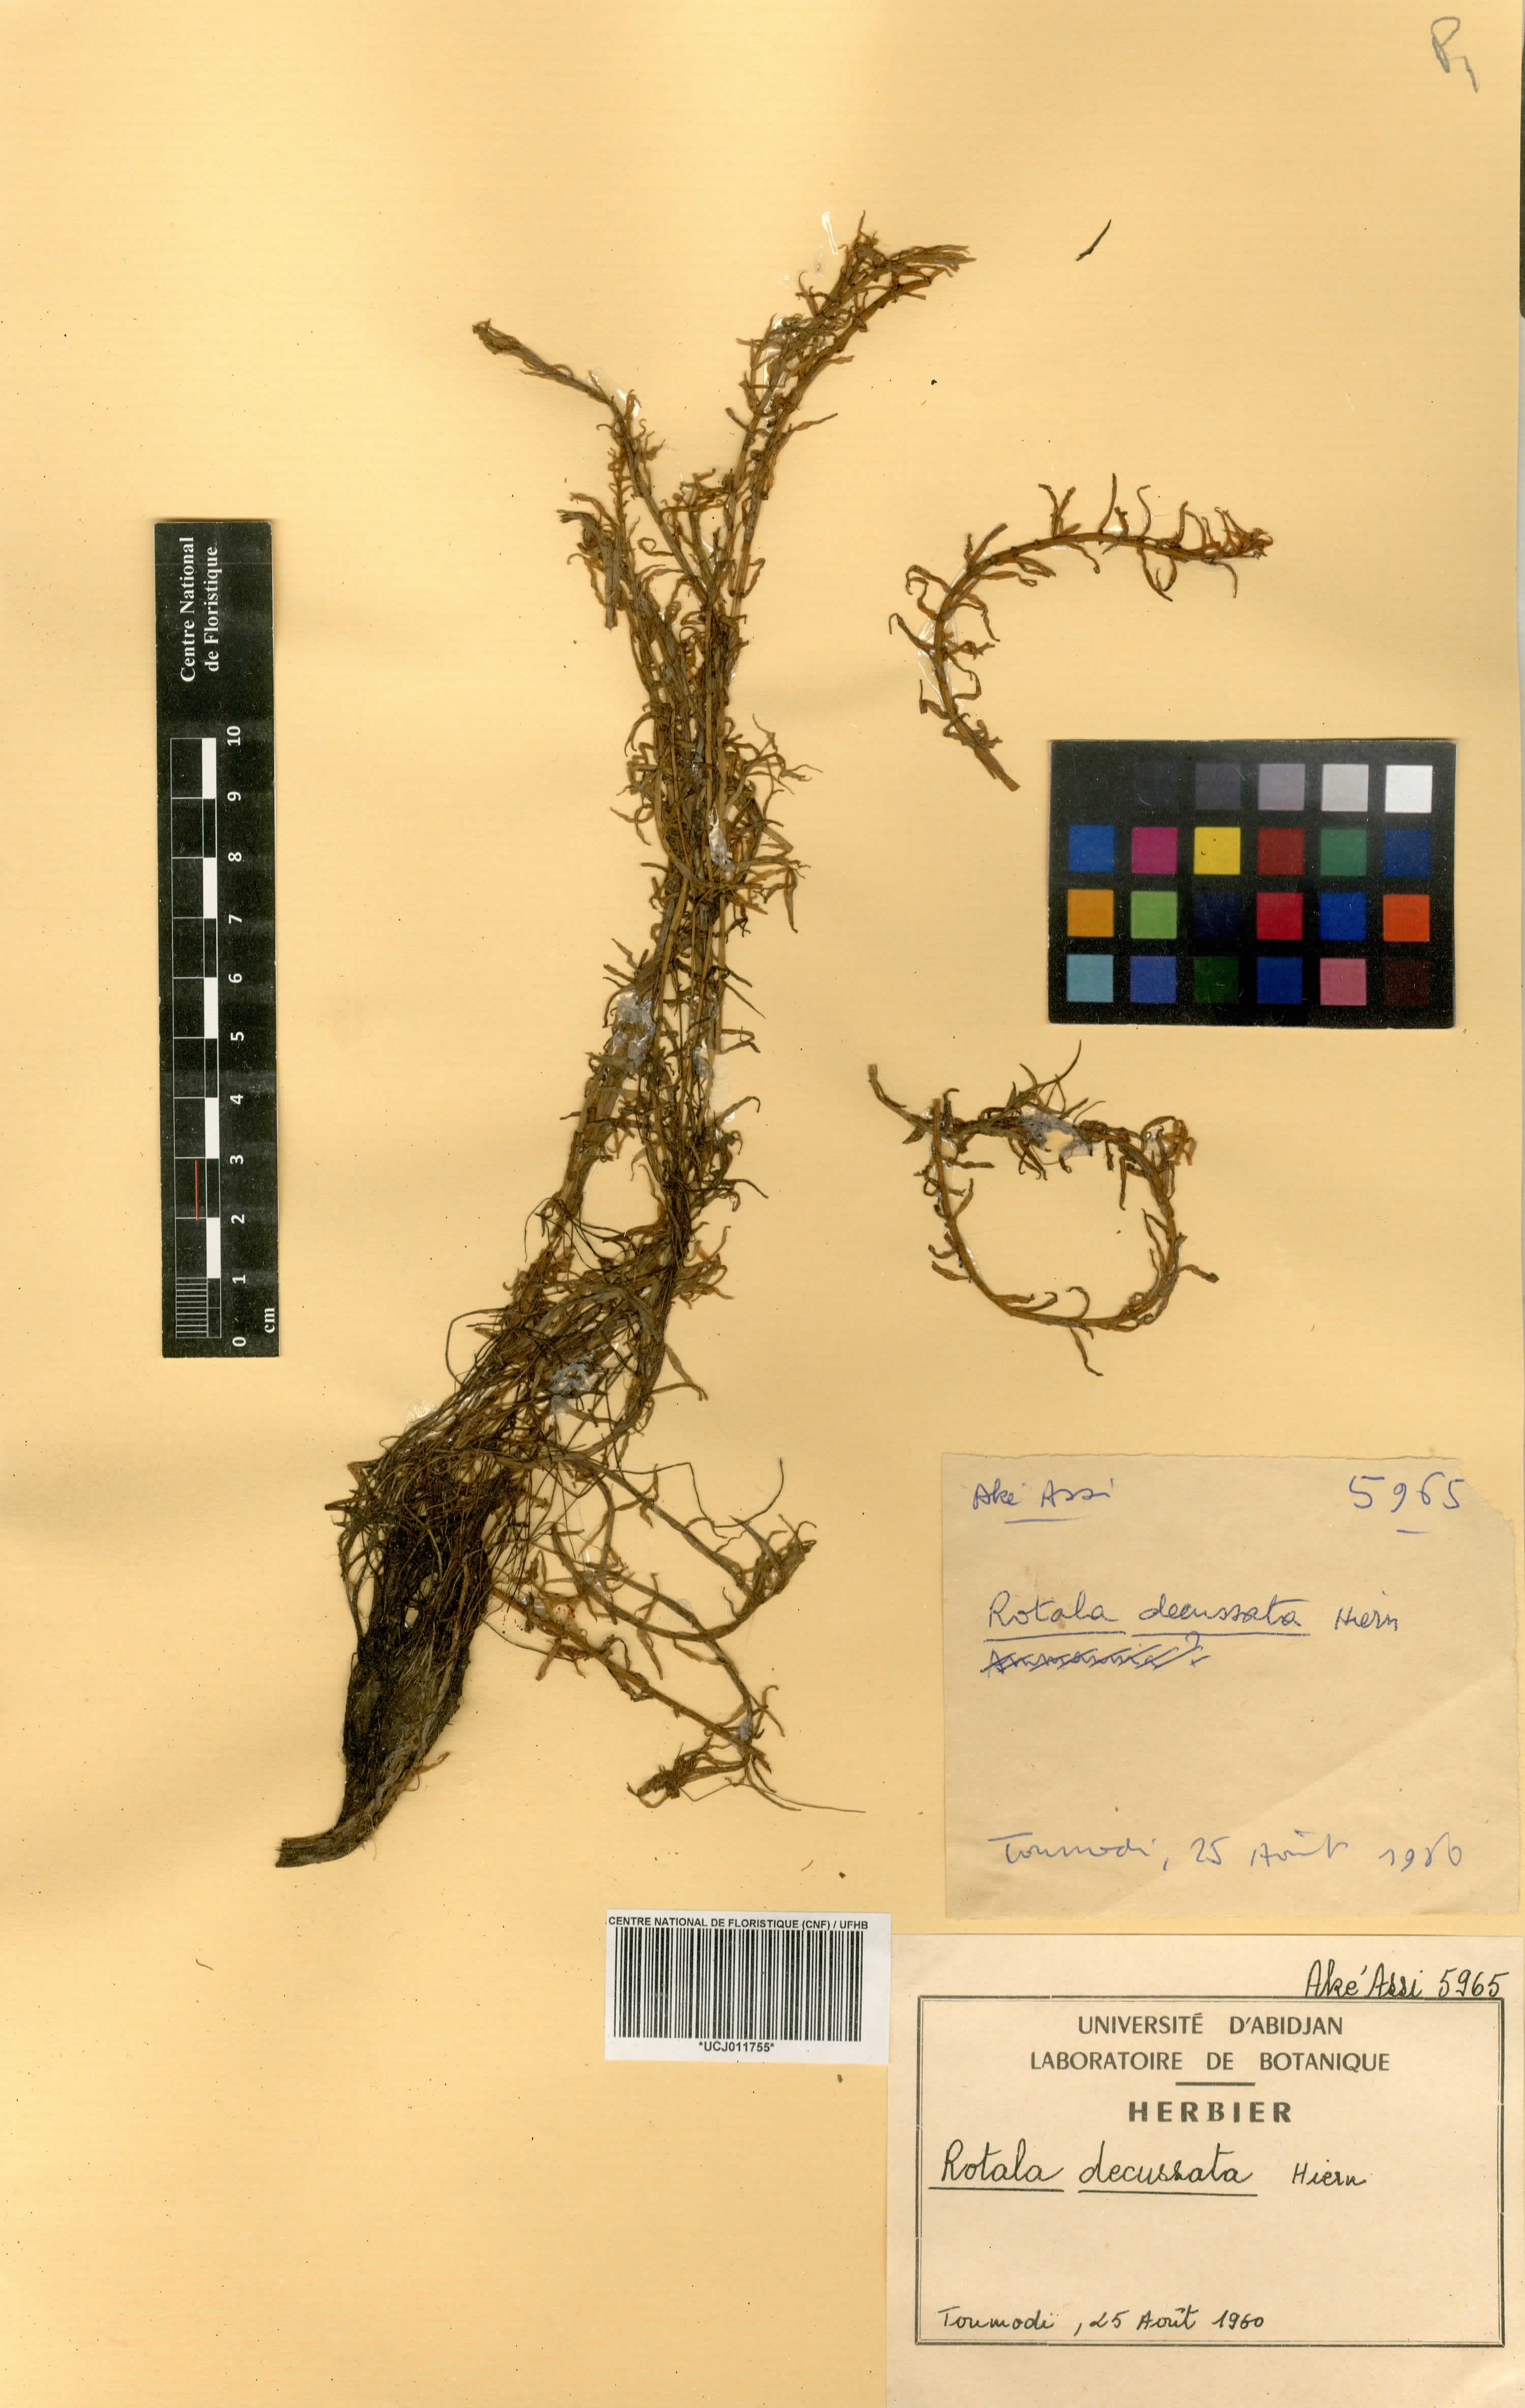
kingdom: Plantae
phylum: Tracheophyta
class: Magnoliopsida
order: Myrtales
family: Lythraceae
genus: Rotala
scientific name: Rotala welwitschii
